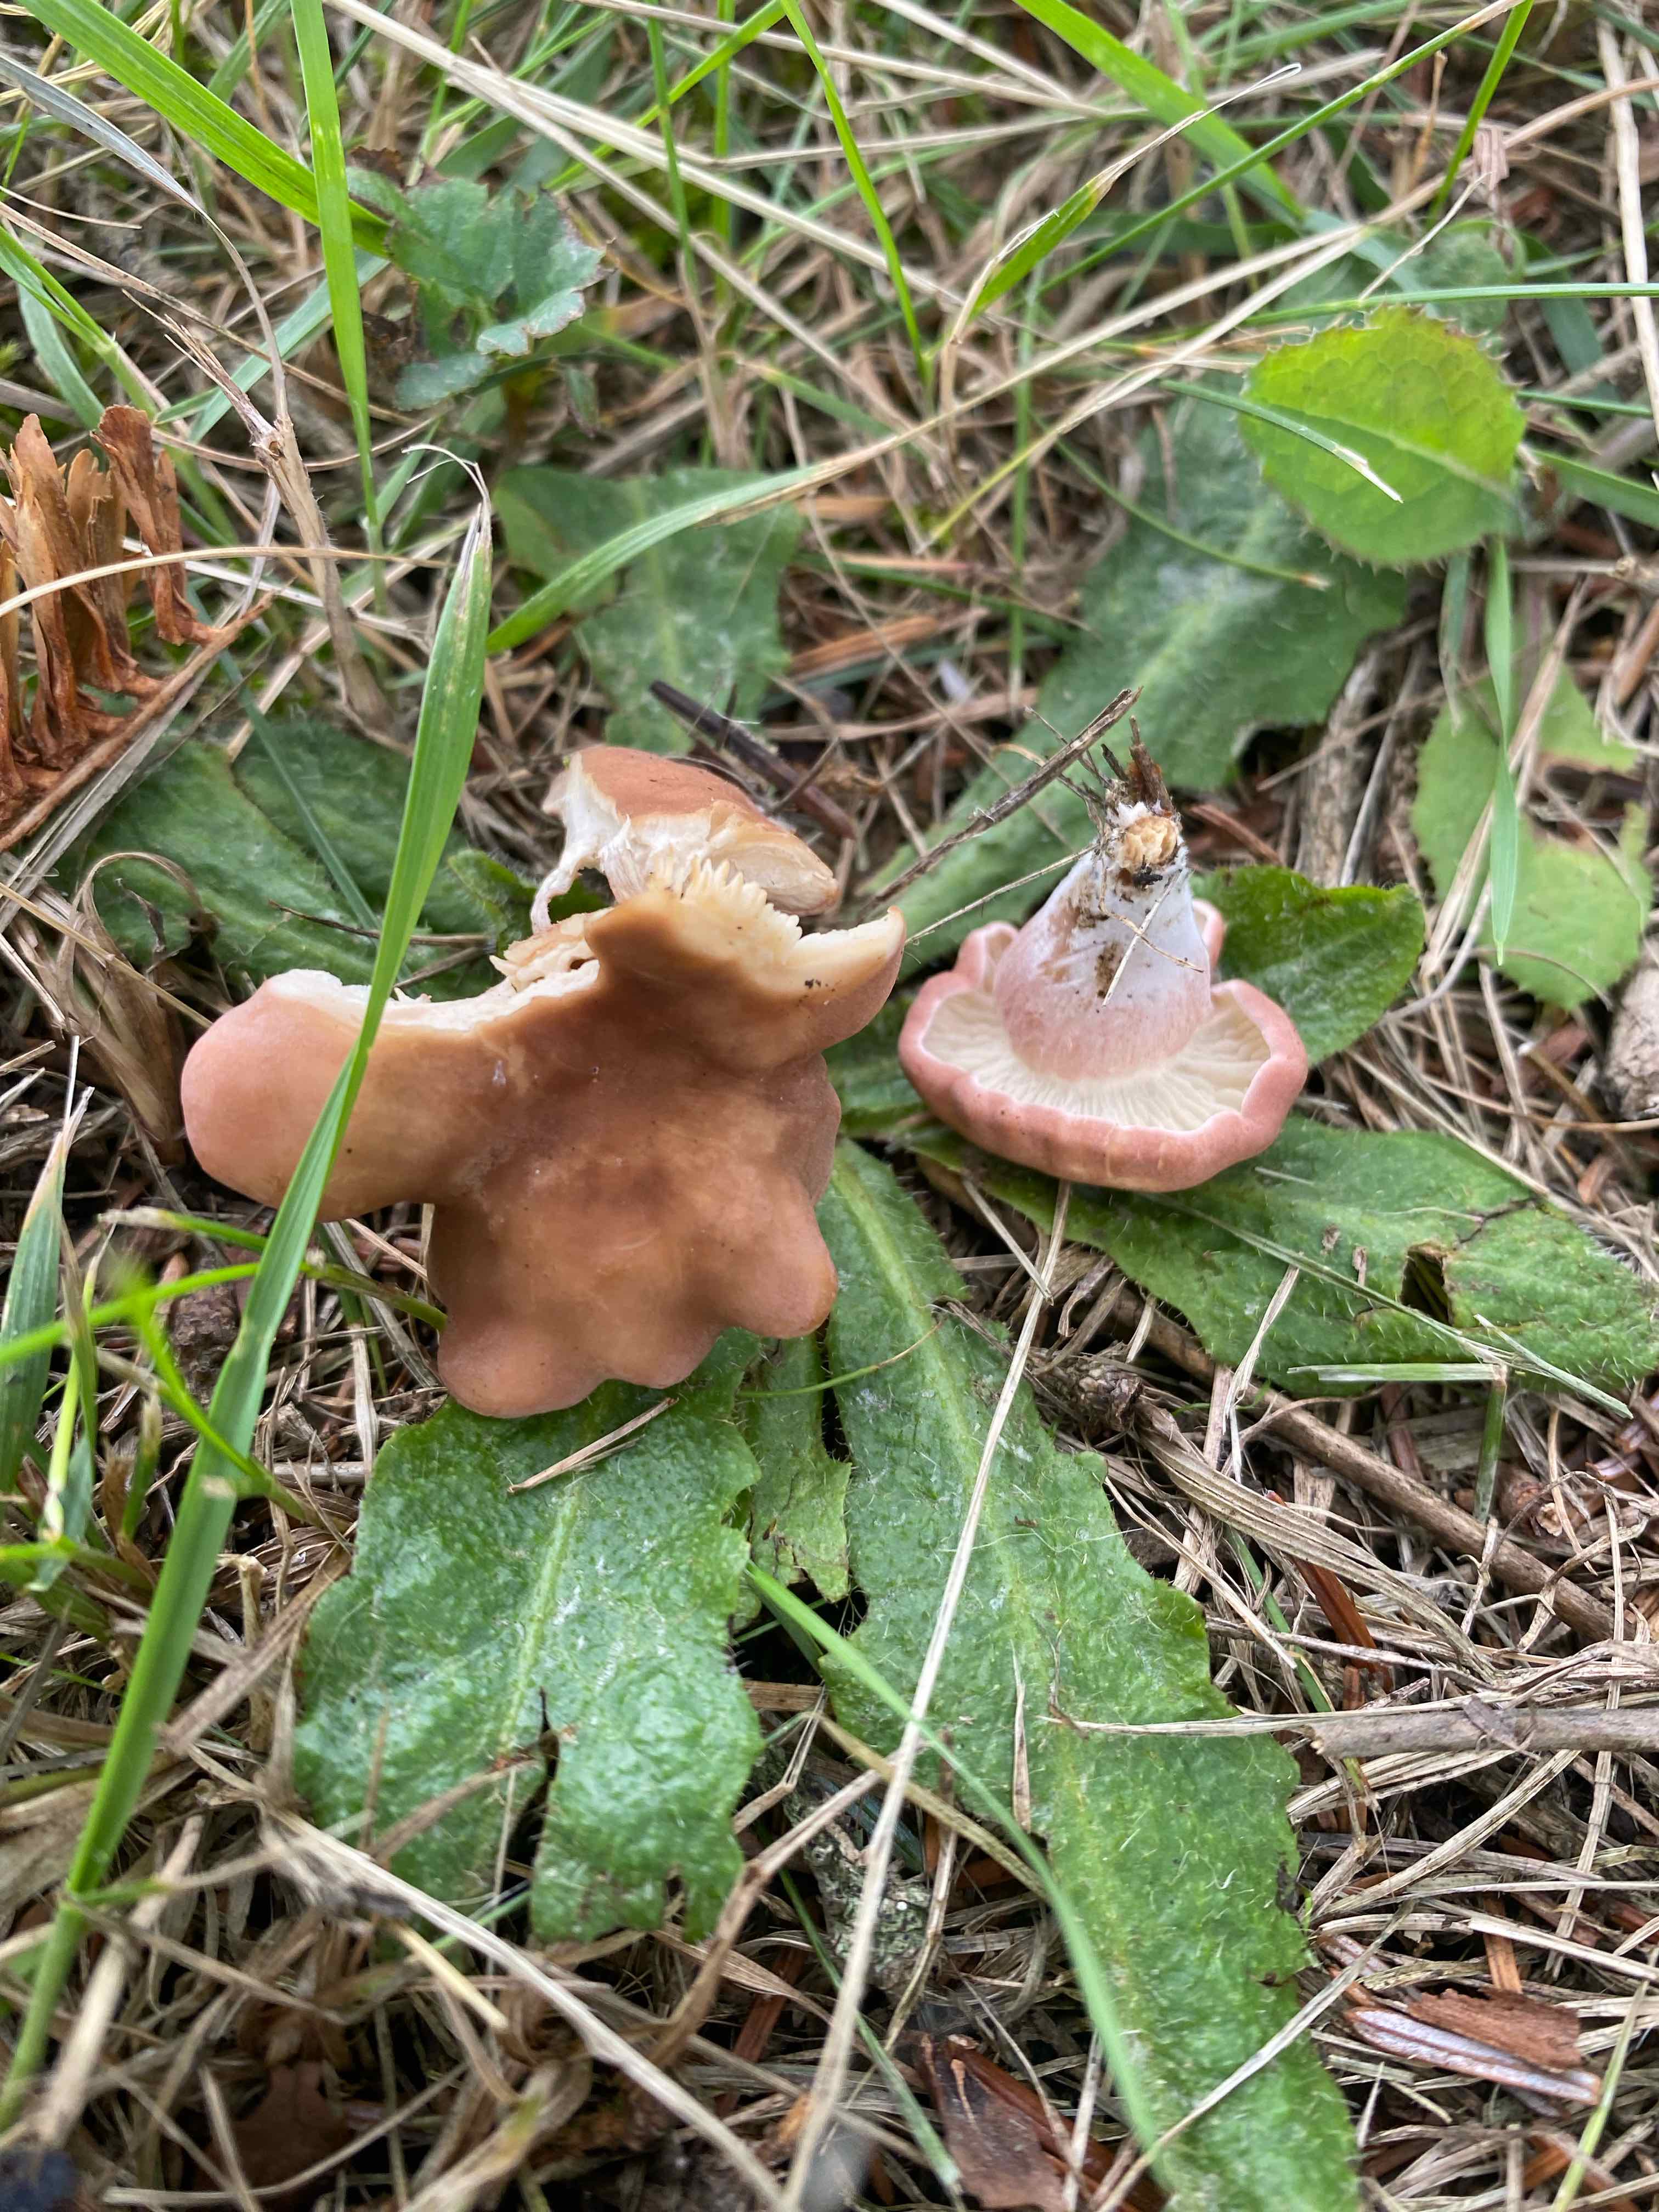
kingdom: Fungi
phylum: Basidiomycota
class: Agaricomycetes
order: Agaricales
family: Lyophyllaceae
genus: Calocybe
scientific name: Calocybe carnea
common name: rosa fagerhat
